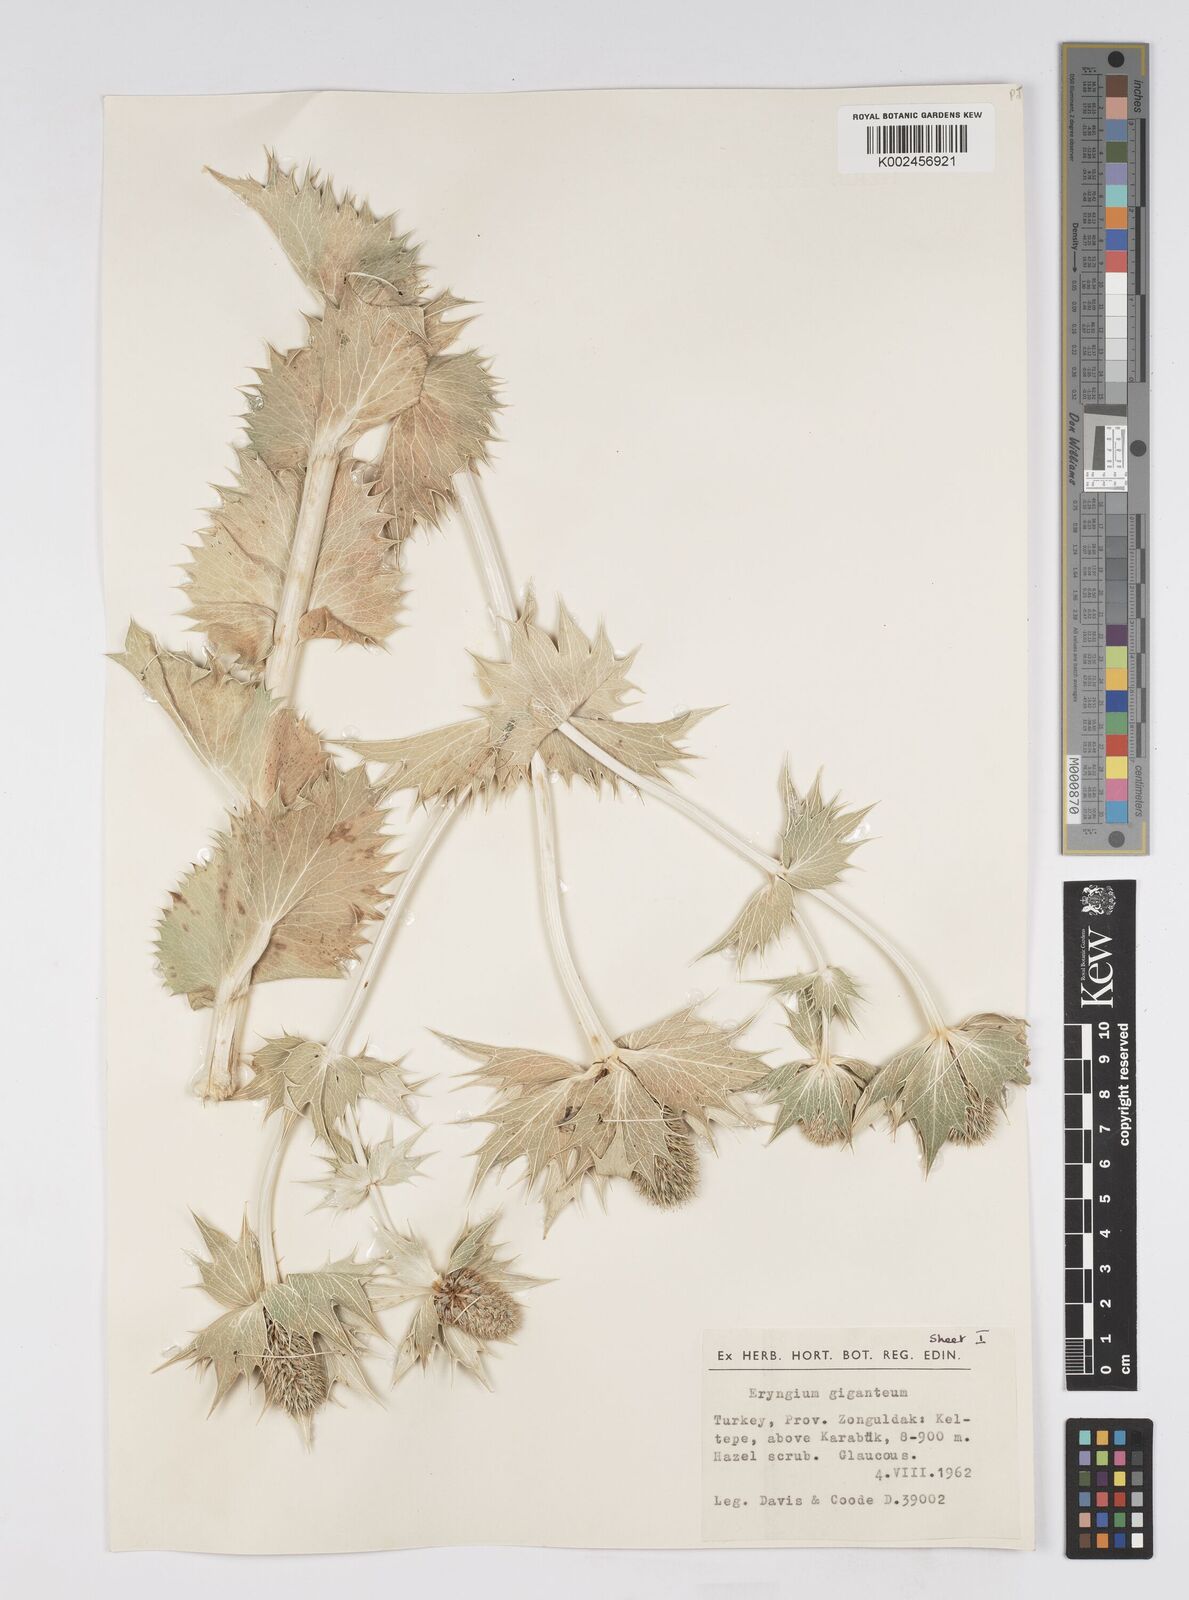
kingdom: Plantae
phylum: Tracheophyta
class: Magnoliopsida
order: Apiales
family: Apiaceae
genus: Eryngium
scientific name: Eryngium giganteum
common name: Tall eryngo
